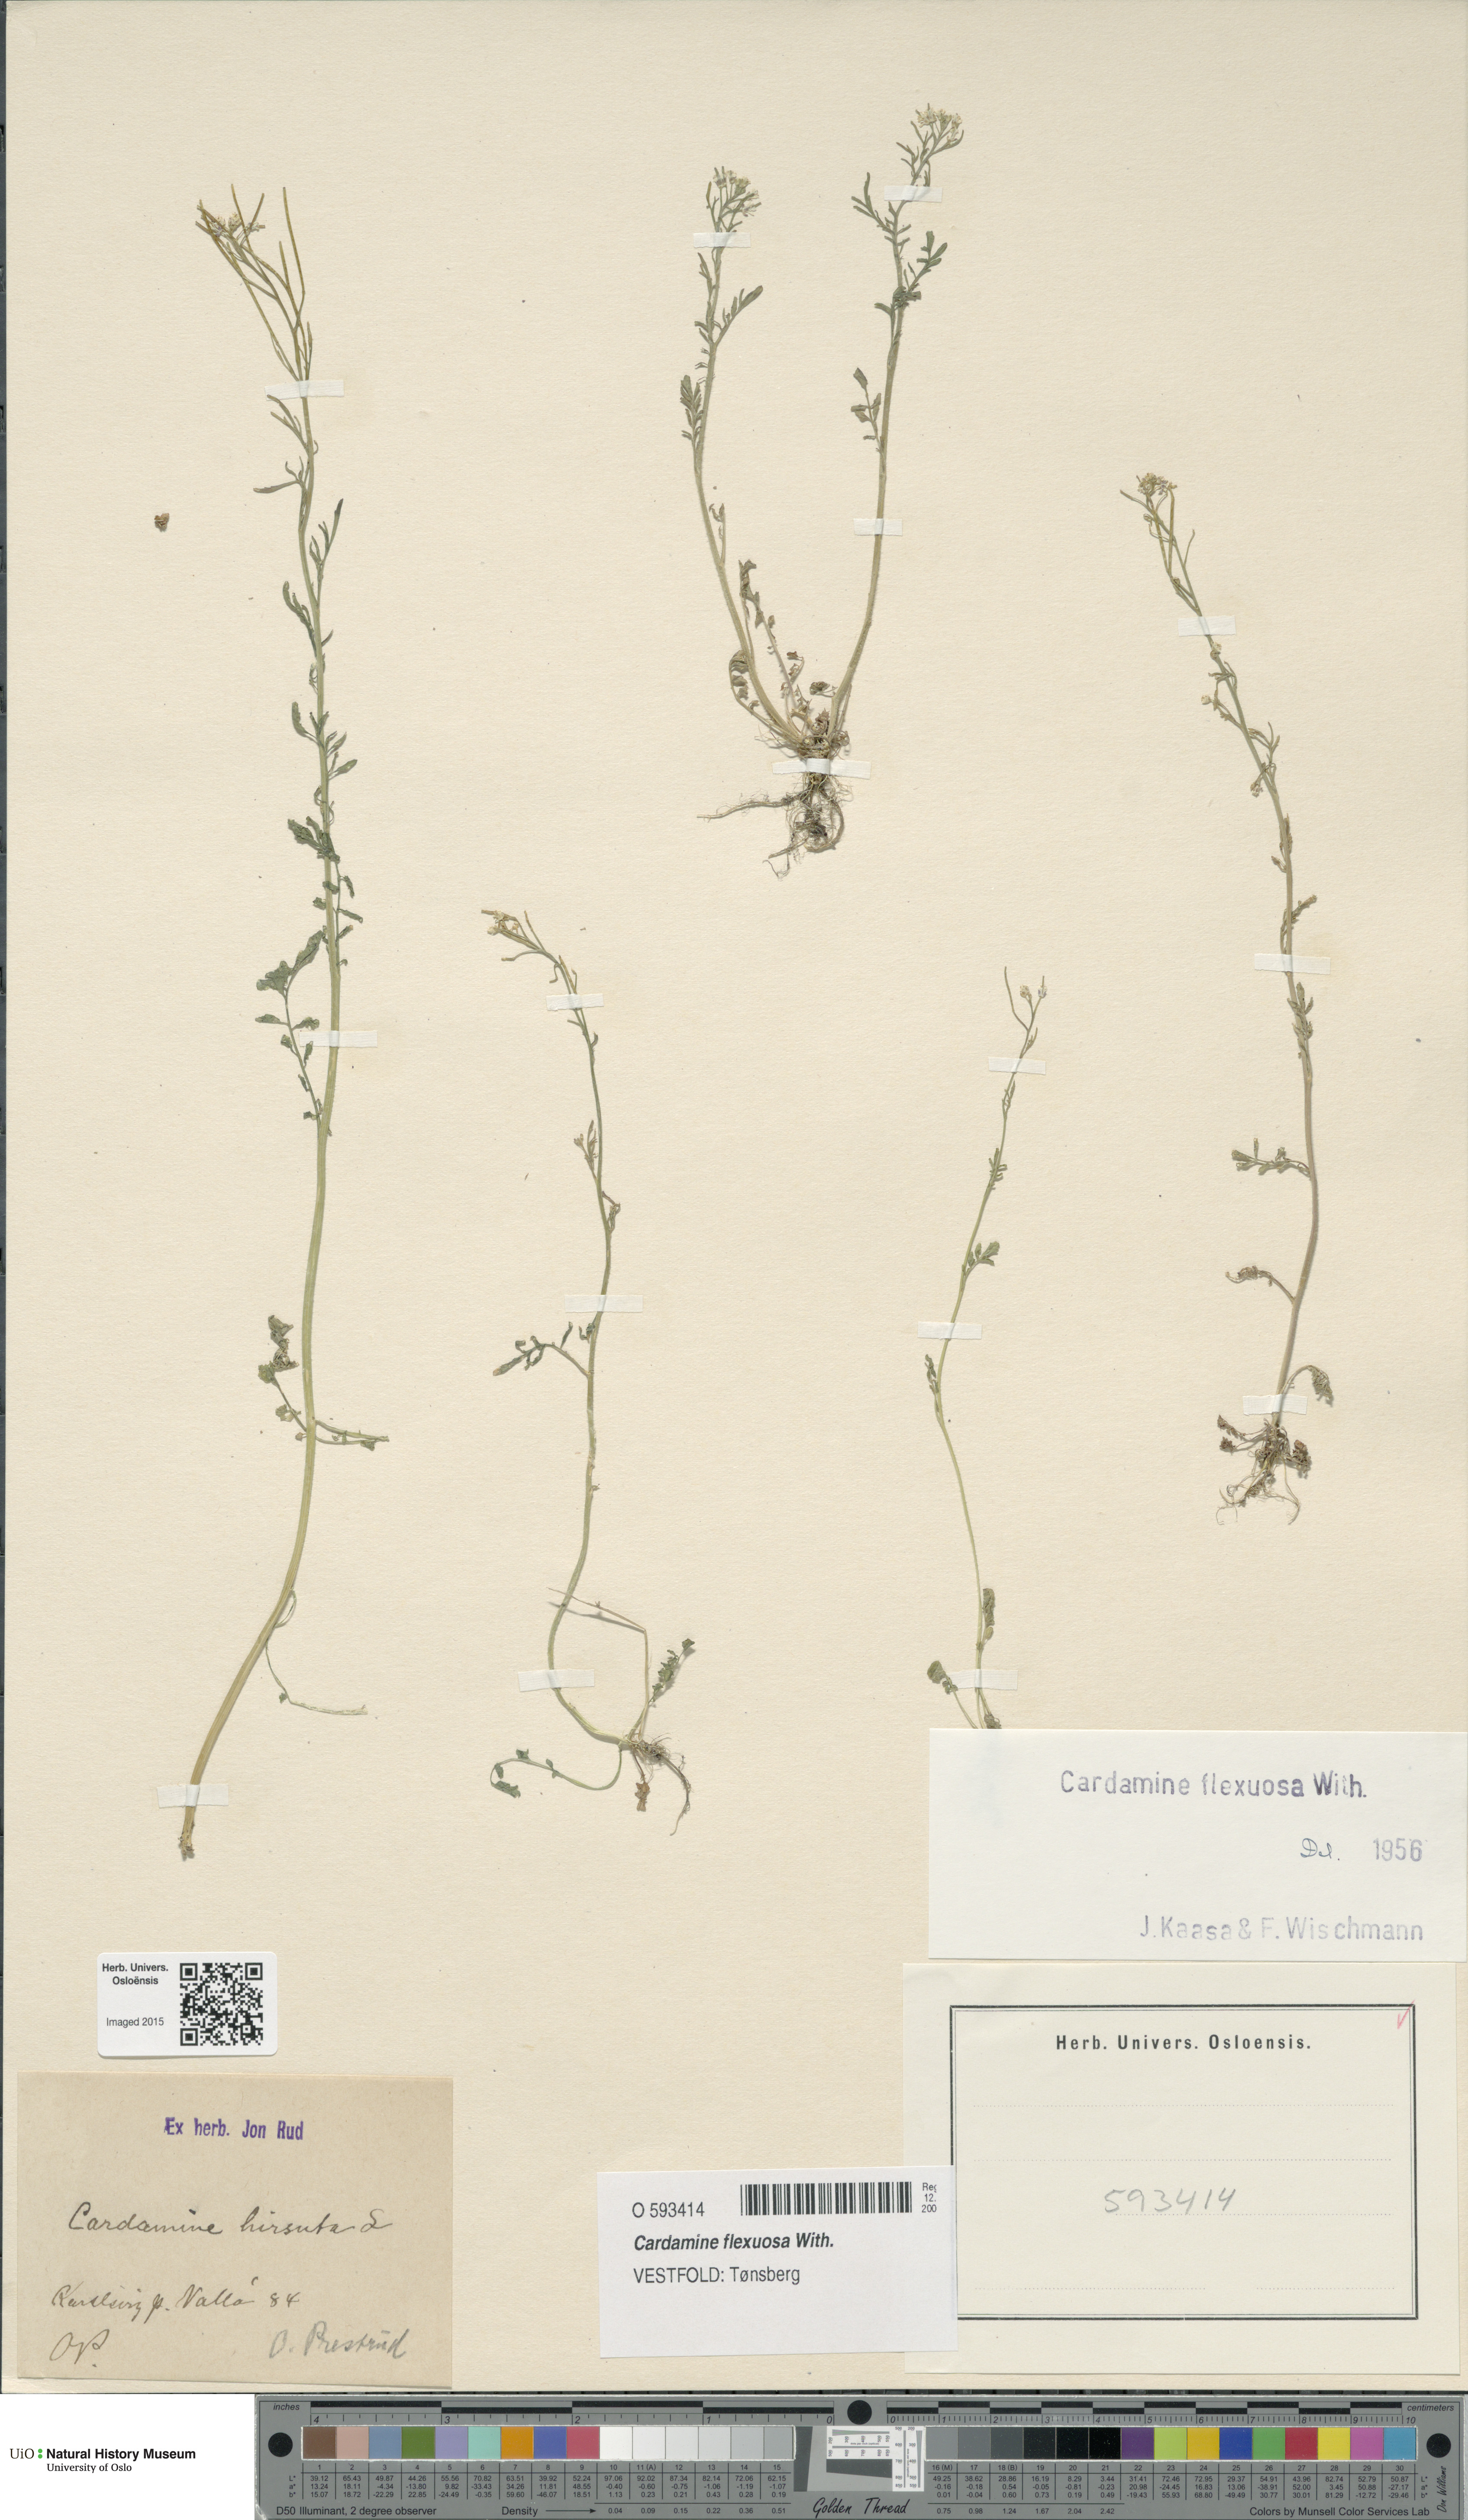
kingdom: Plantae
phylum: Tracheophyta
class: Magnoliopsida
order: Brassicales
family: Brassicaceae
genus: Cardamine
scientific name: Cardamine flexuosa
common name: Woodland bittercress
